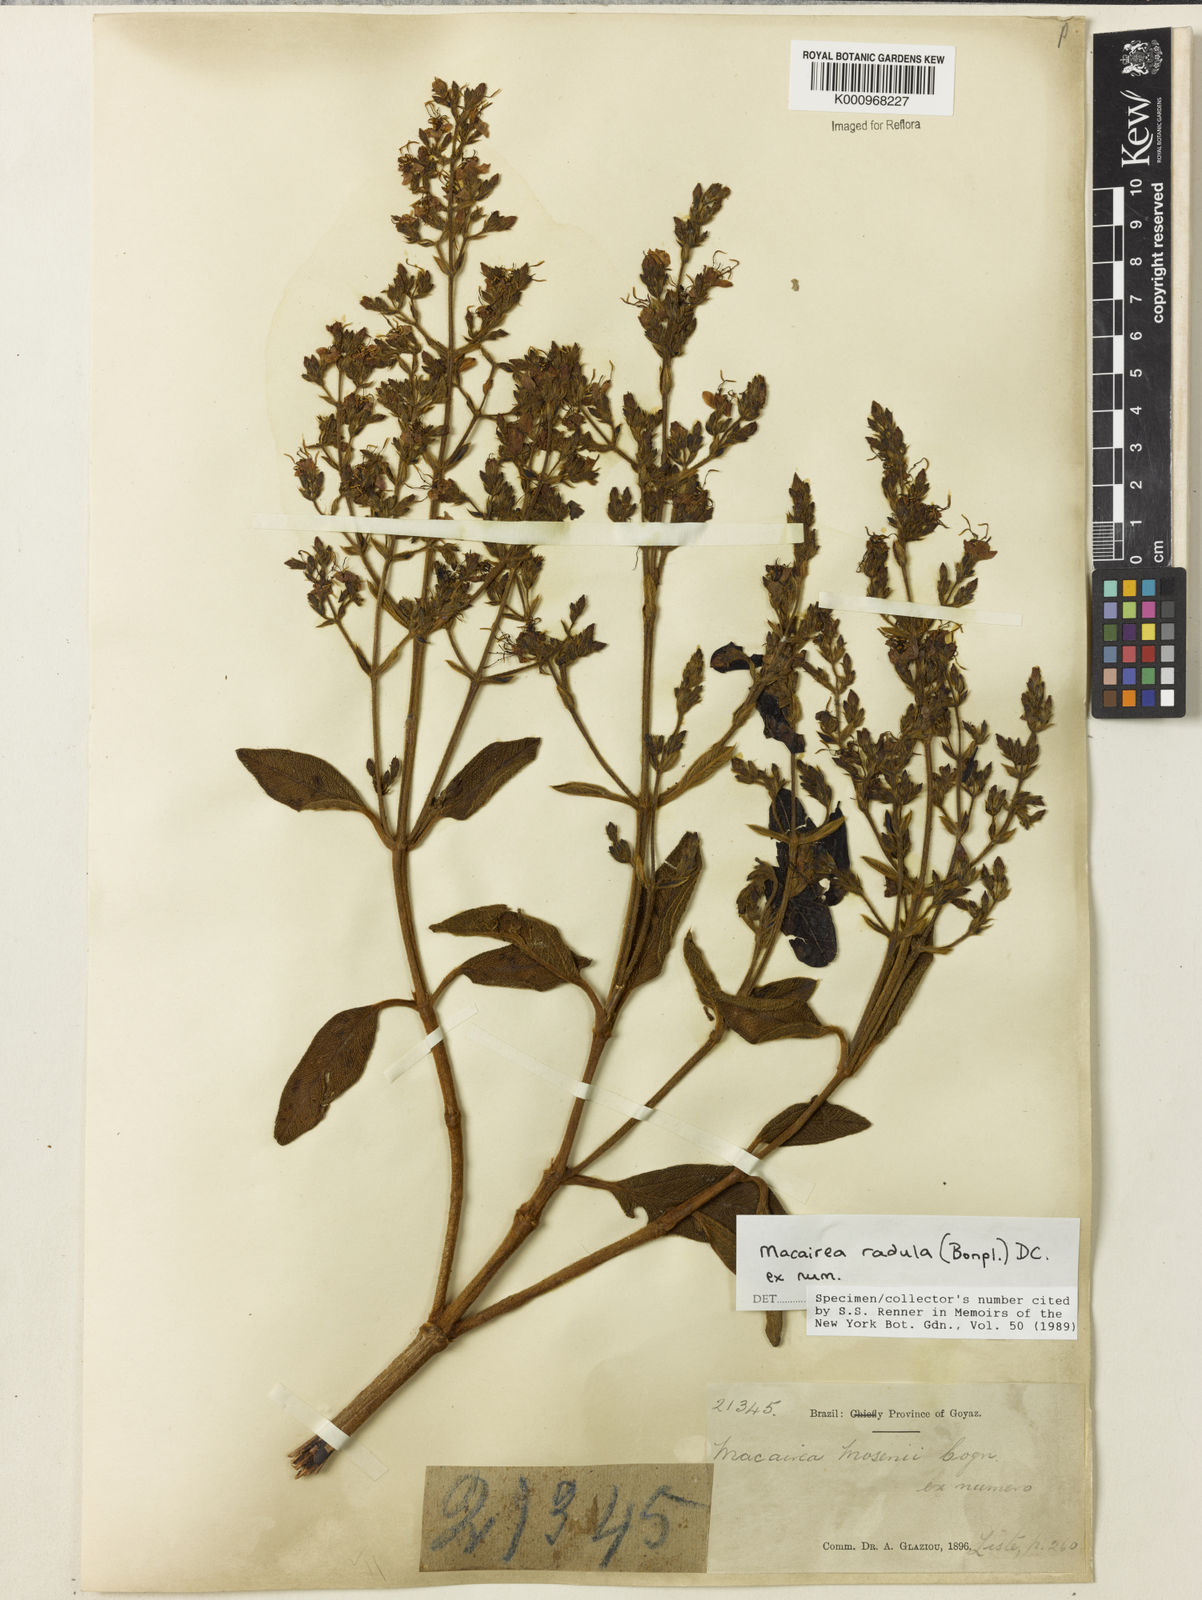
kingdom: Plantae
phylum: Tracheophyta
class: Magnoliopsida
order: Myrtales
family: Melastomataceae
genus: Macairea
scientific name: Macairea radula
